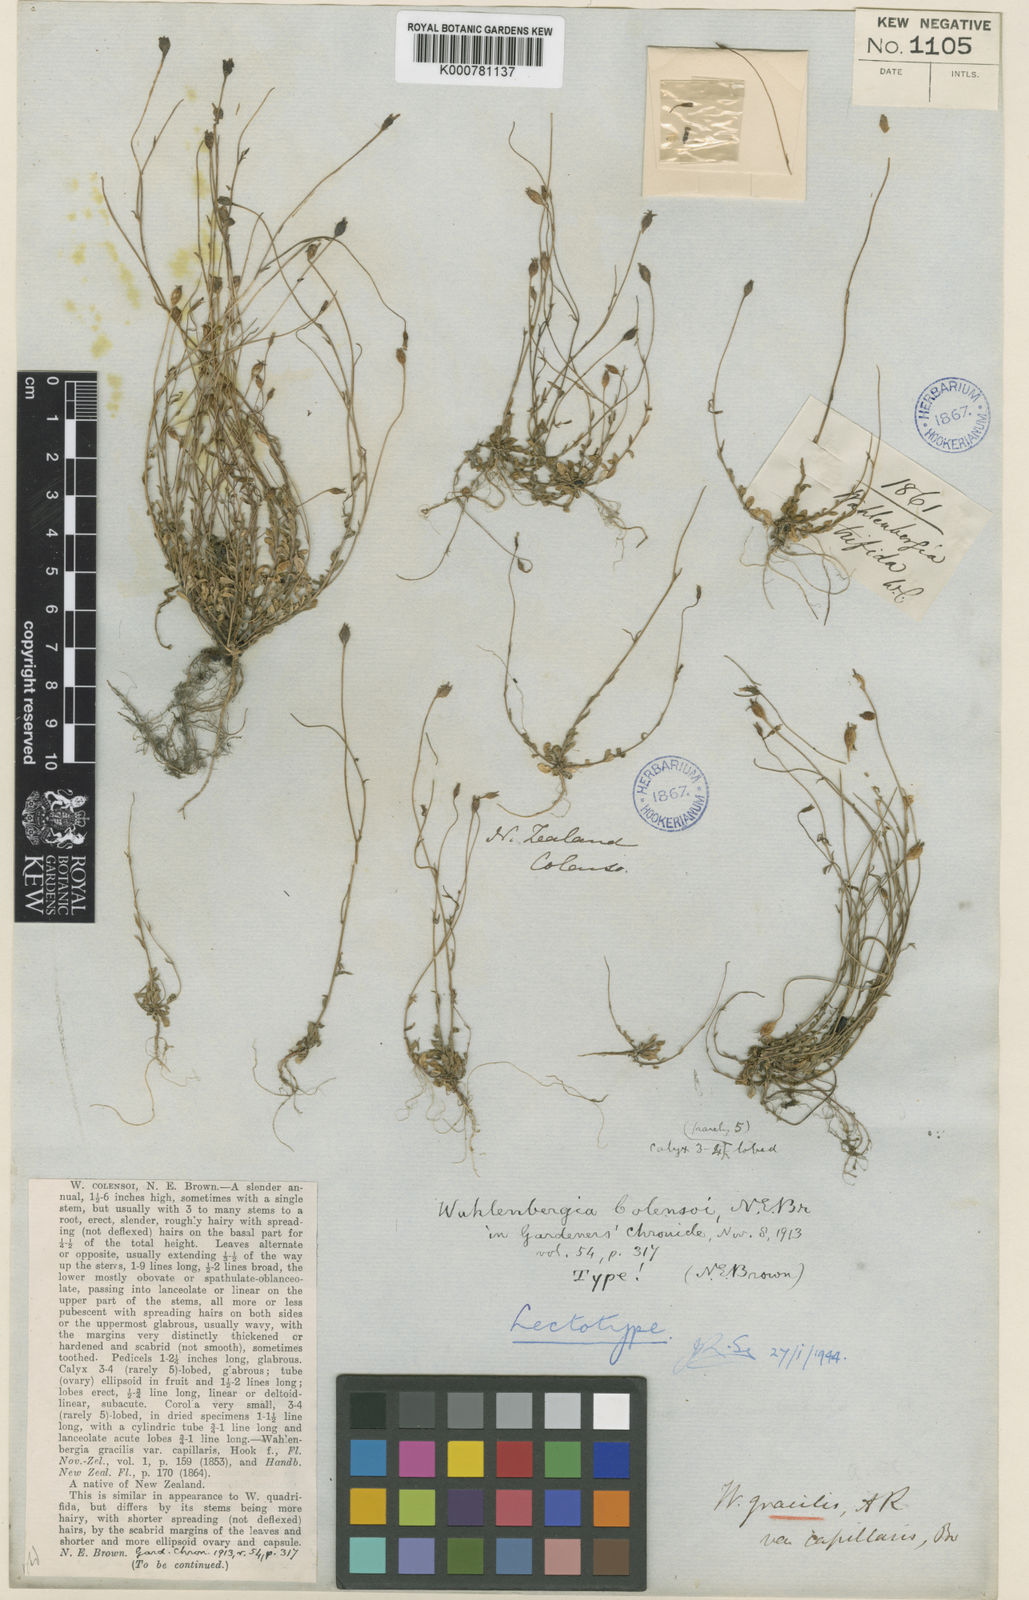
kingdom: Plantae
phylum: Tracheophyta
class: Magnoliopsida
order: Asterales
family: Campanulaceae
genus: Wahlenbergia
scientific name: Wahlenbergia colensoi
